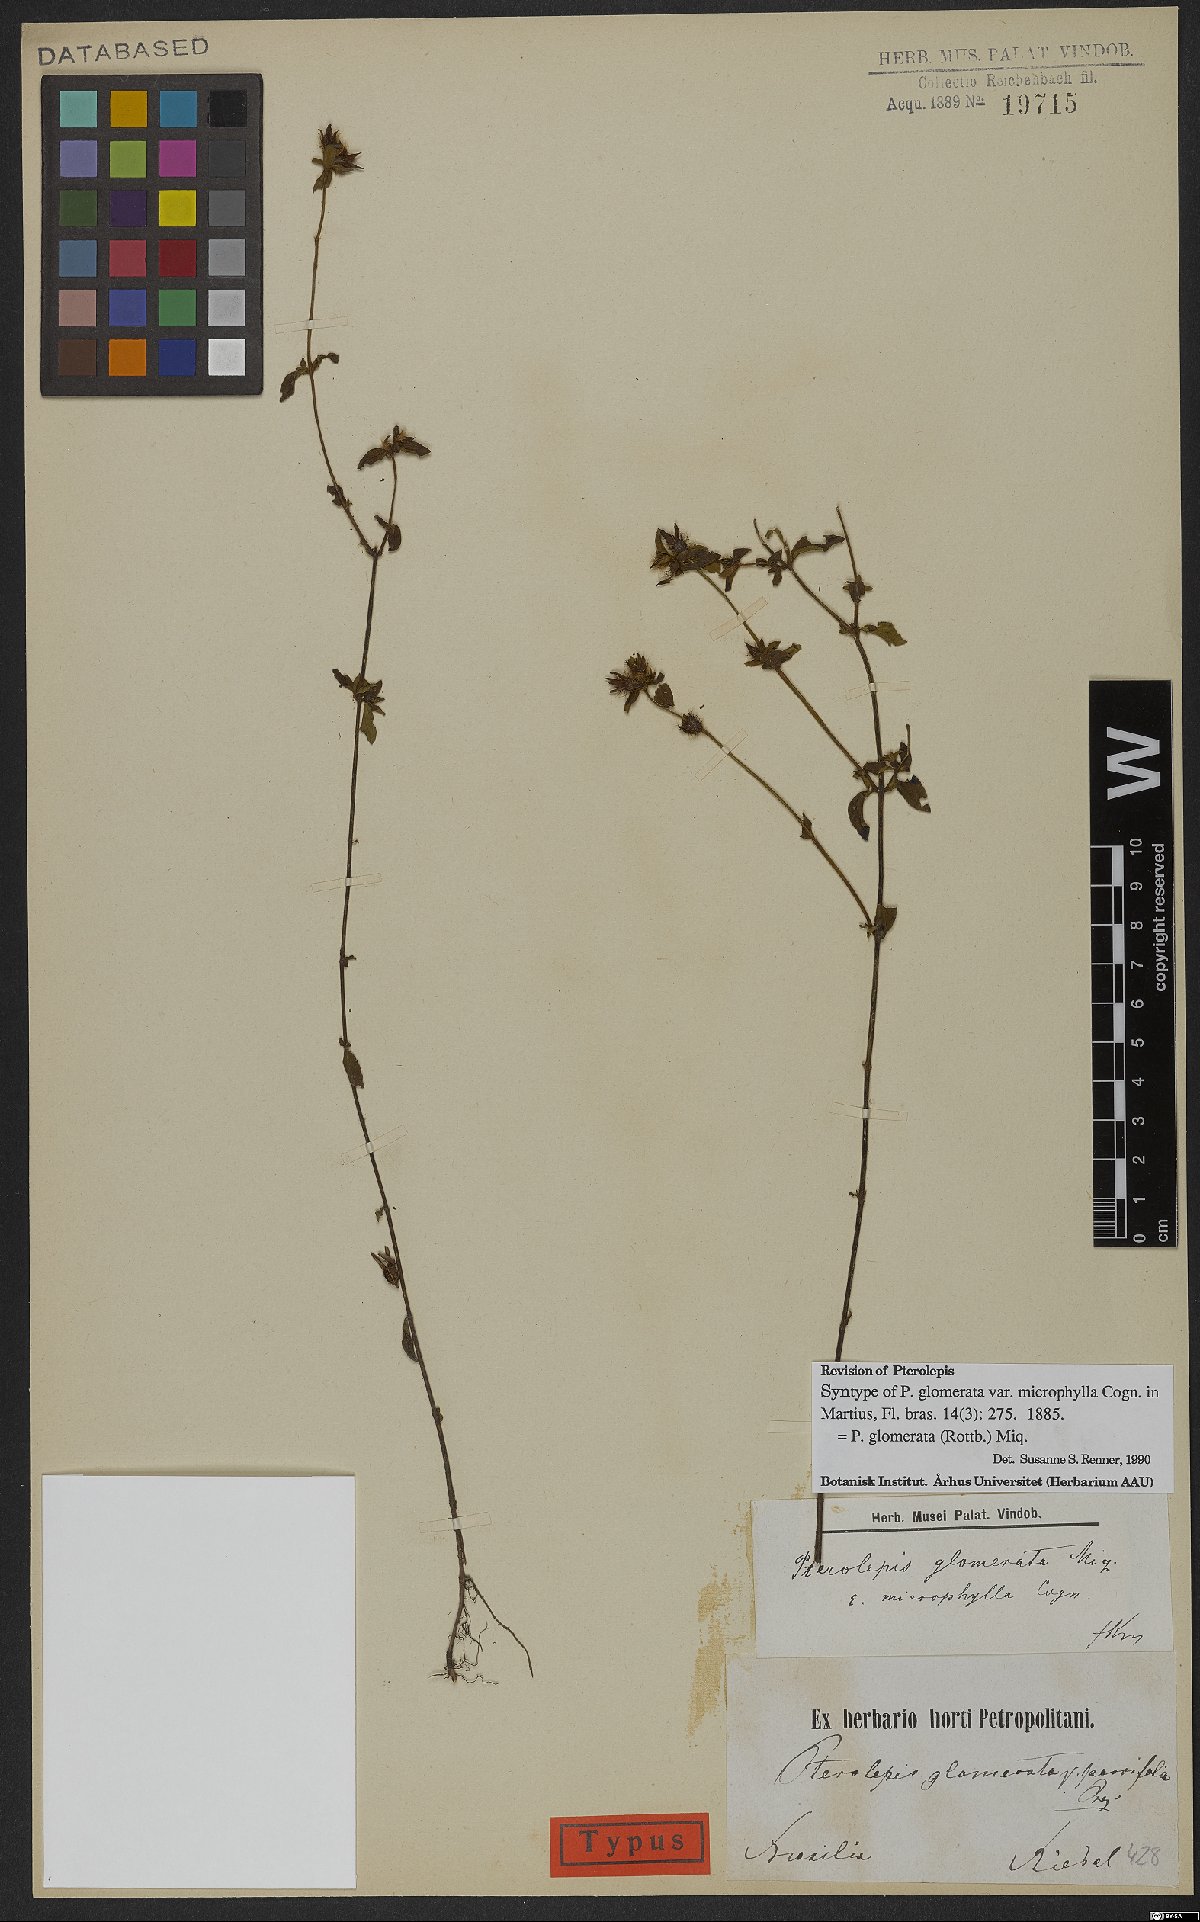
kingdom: Plantae
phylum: Tracheophyta
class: Magnoliopsida
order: Myrtales
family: Melastomataceae
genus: Pterolepis
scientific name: Pterolepis glomerata
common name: False meadowbeauty
